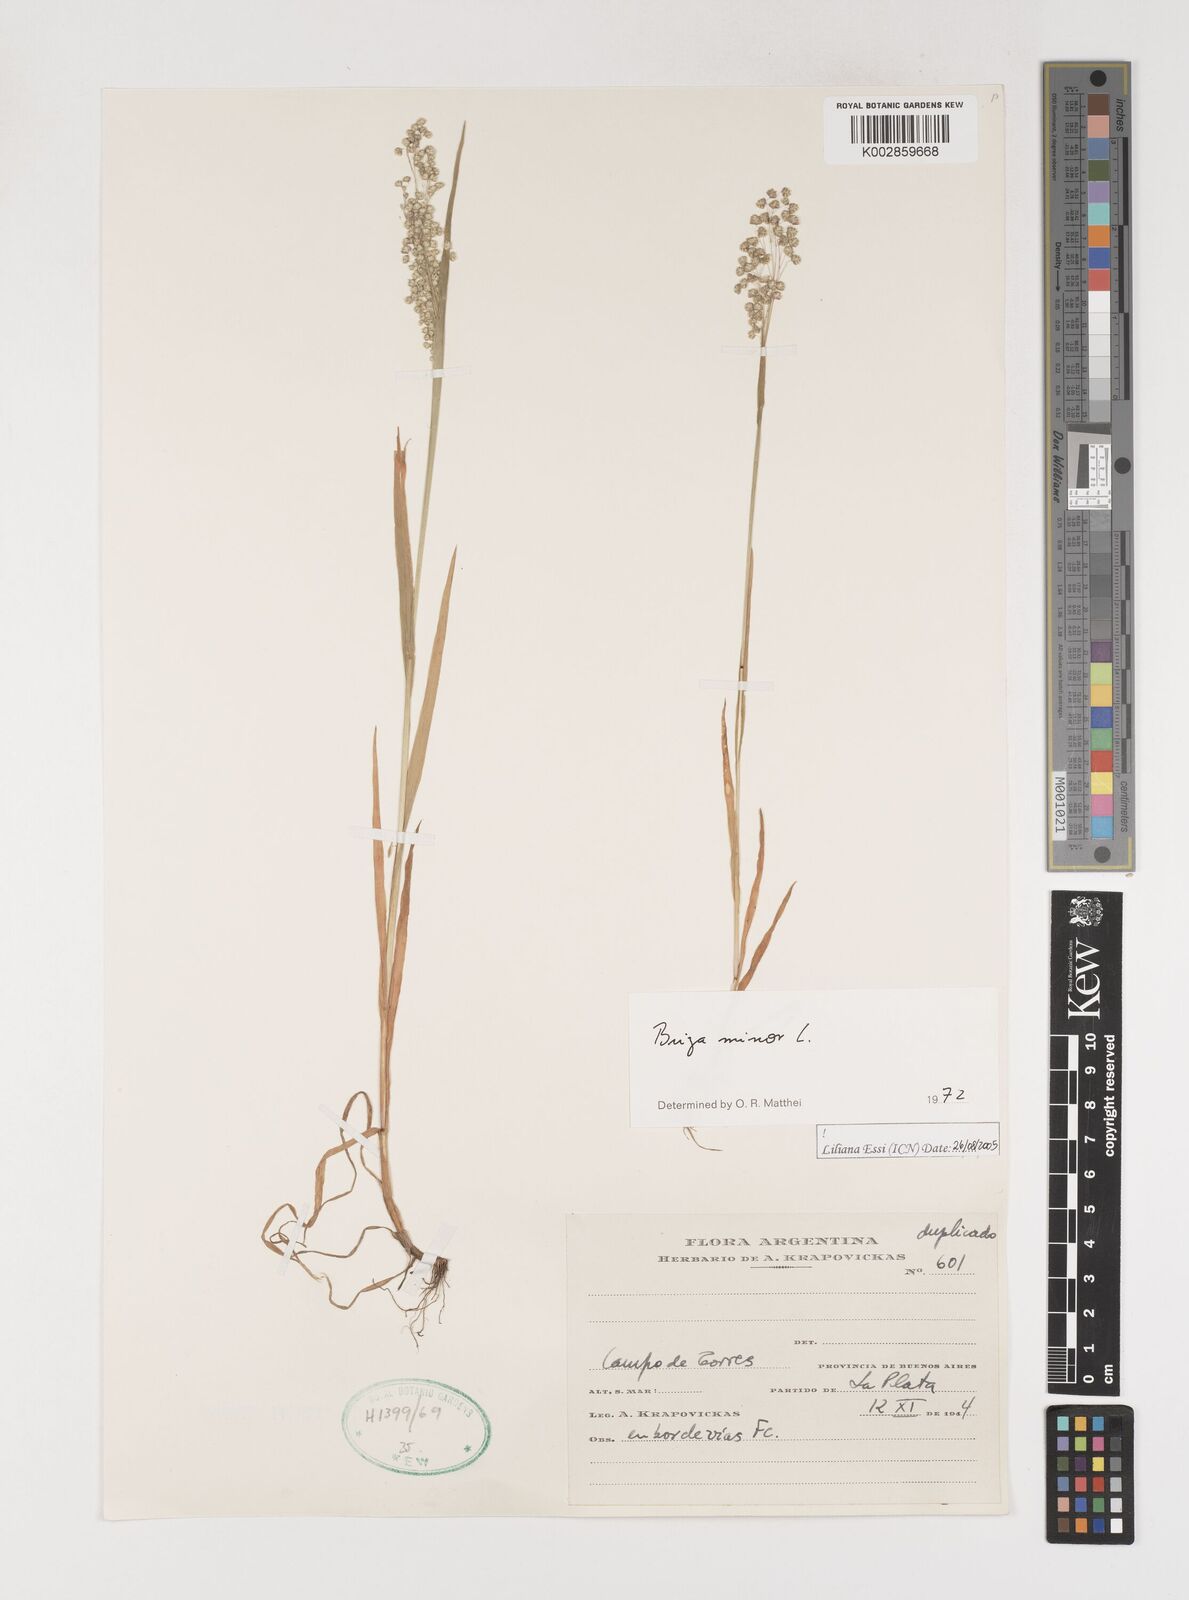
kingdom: Plantae
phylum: Tracheophyta
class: Liliopsida
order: Poales
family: Poaceae
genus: Briza
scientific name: Briza minor
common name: Lesser quaking-grass
